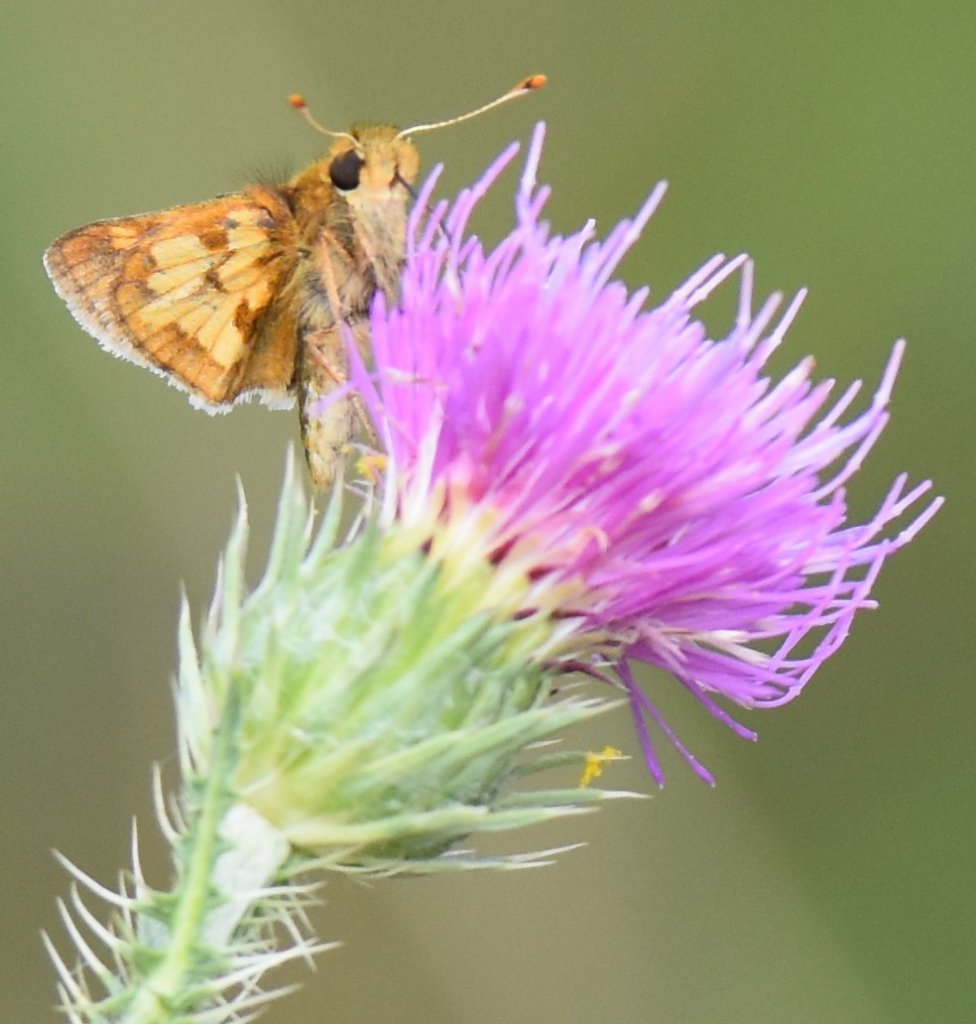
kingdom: Animalia
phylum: Arthropoda
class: Insecta
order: Lepidoptera
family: Hesperiidae
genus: Polites
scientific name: Polites coras
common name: Peck's Skipper
